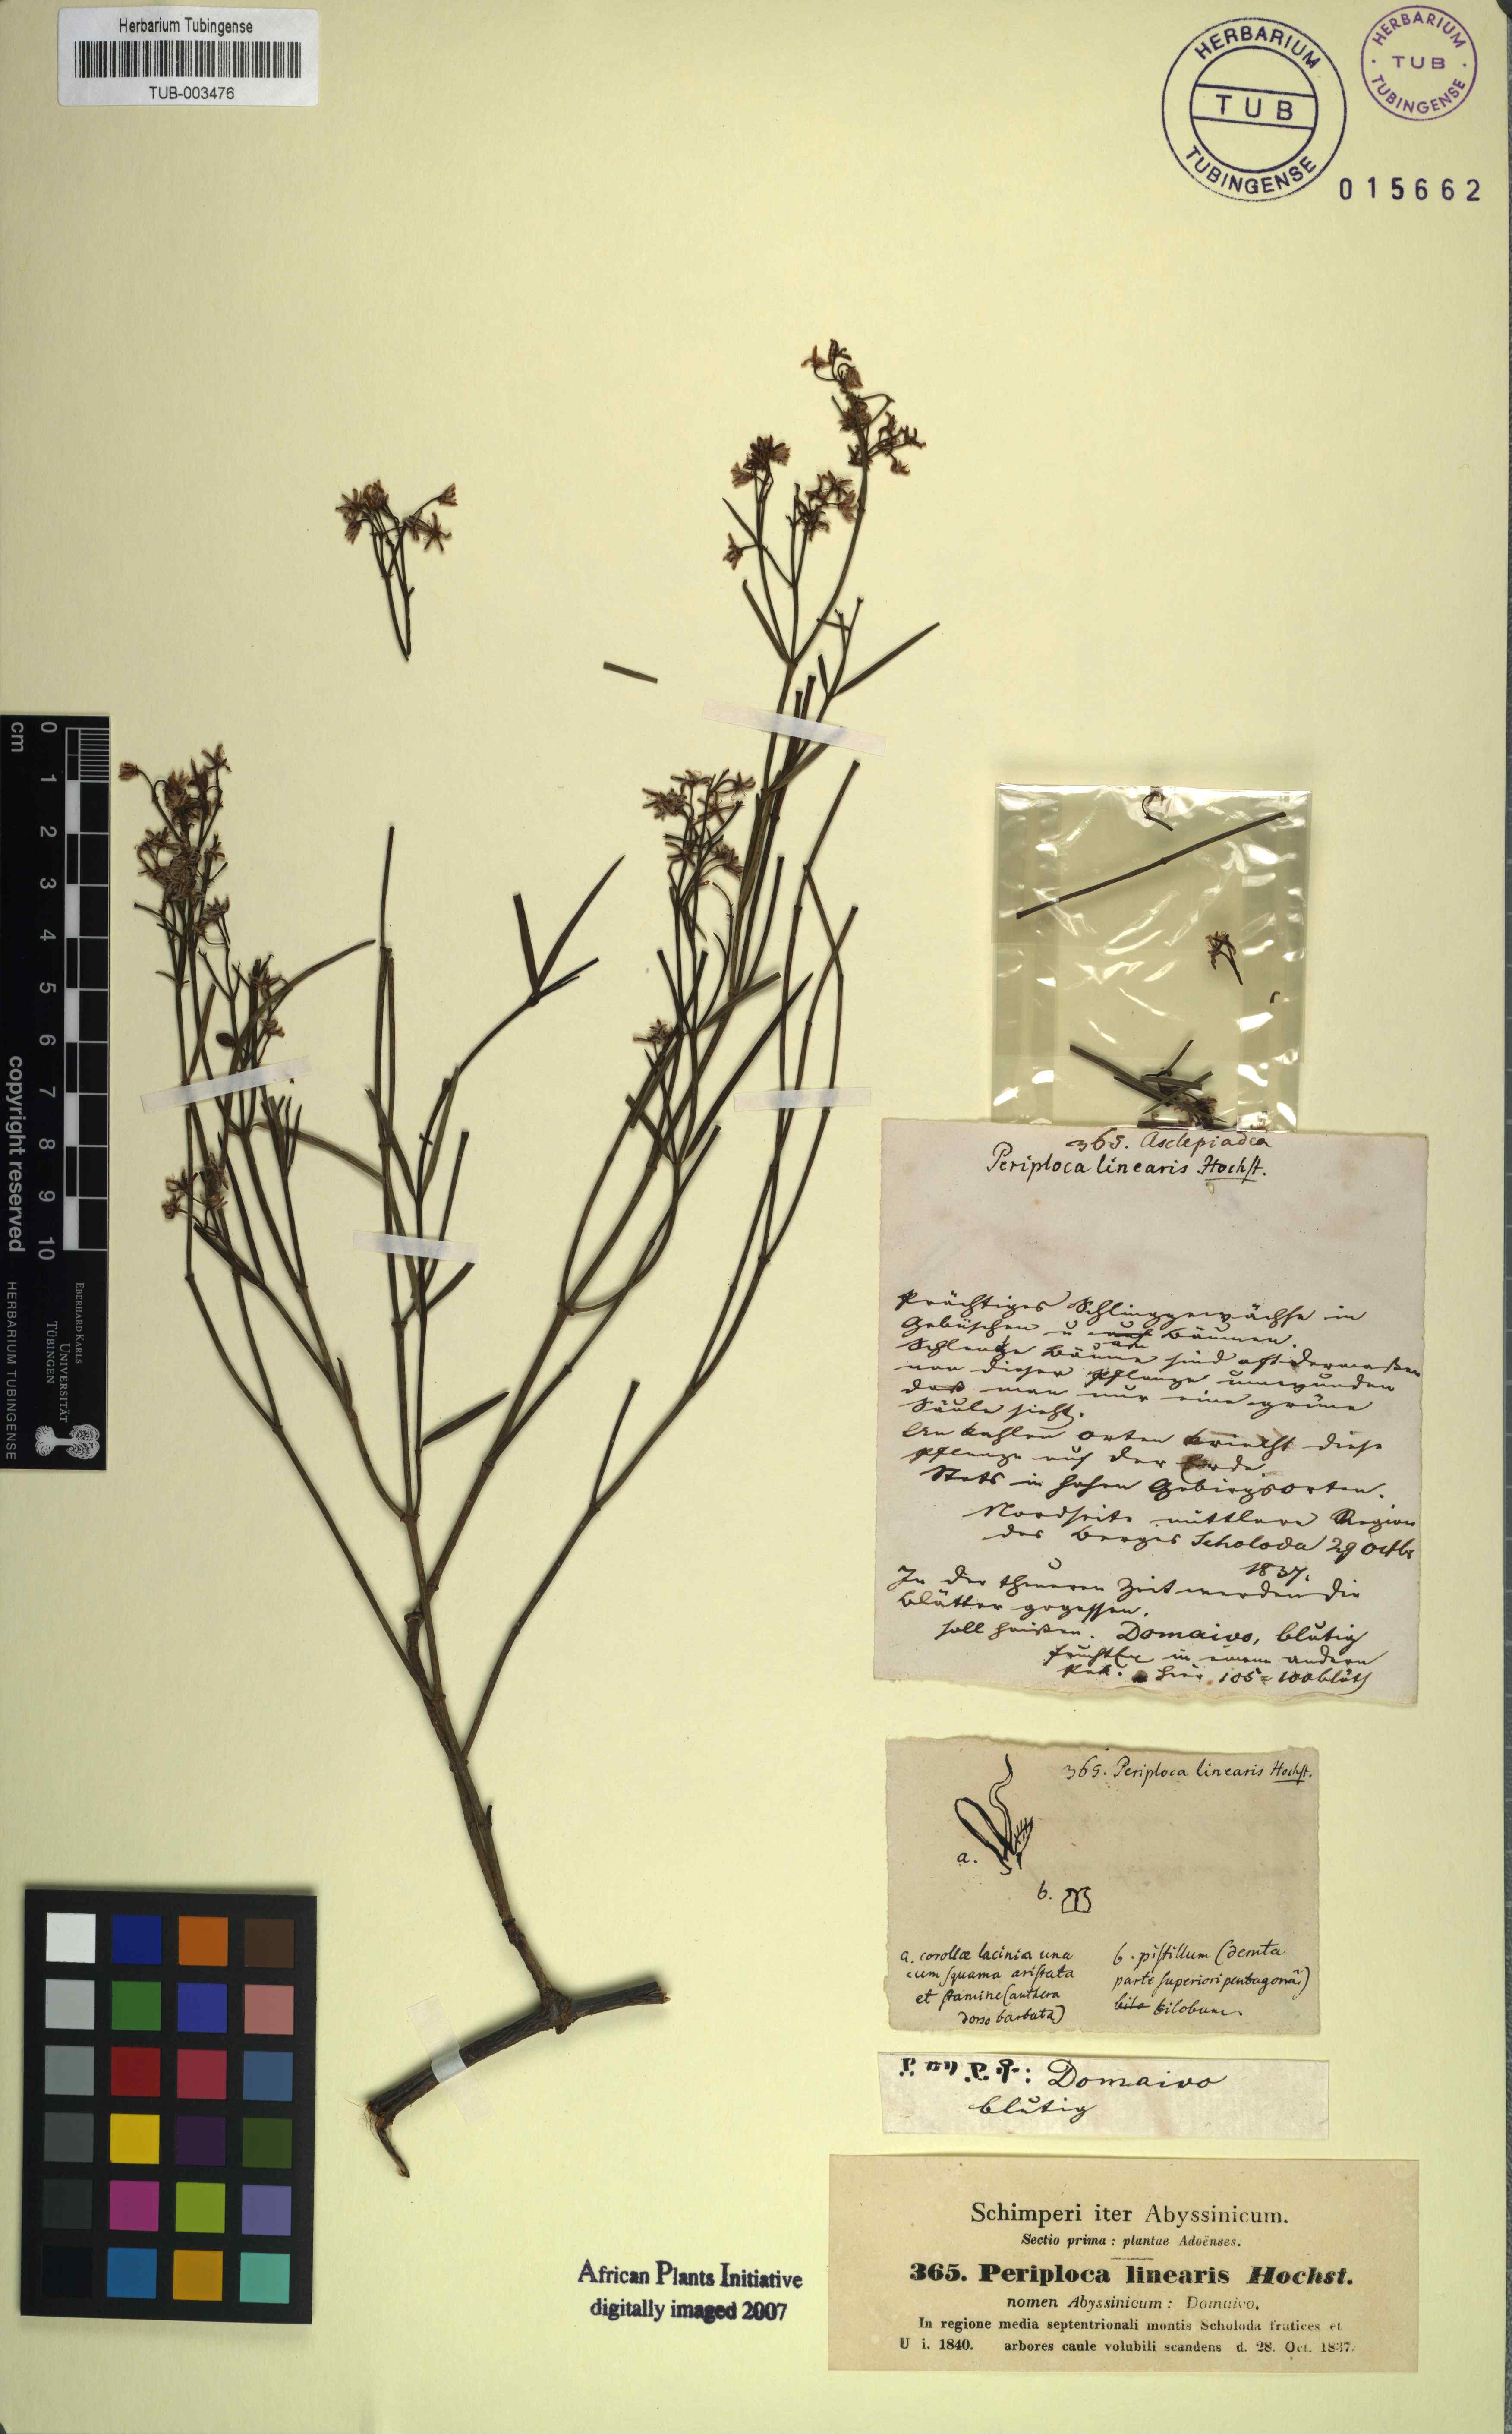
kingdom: Plantae
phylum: Tracheophyta
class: Magnoliopsida
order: Gentianales
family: Apocynaceae
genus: Periploca
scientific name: Periploca linearifolia
